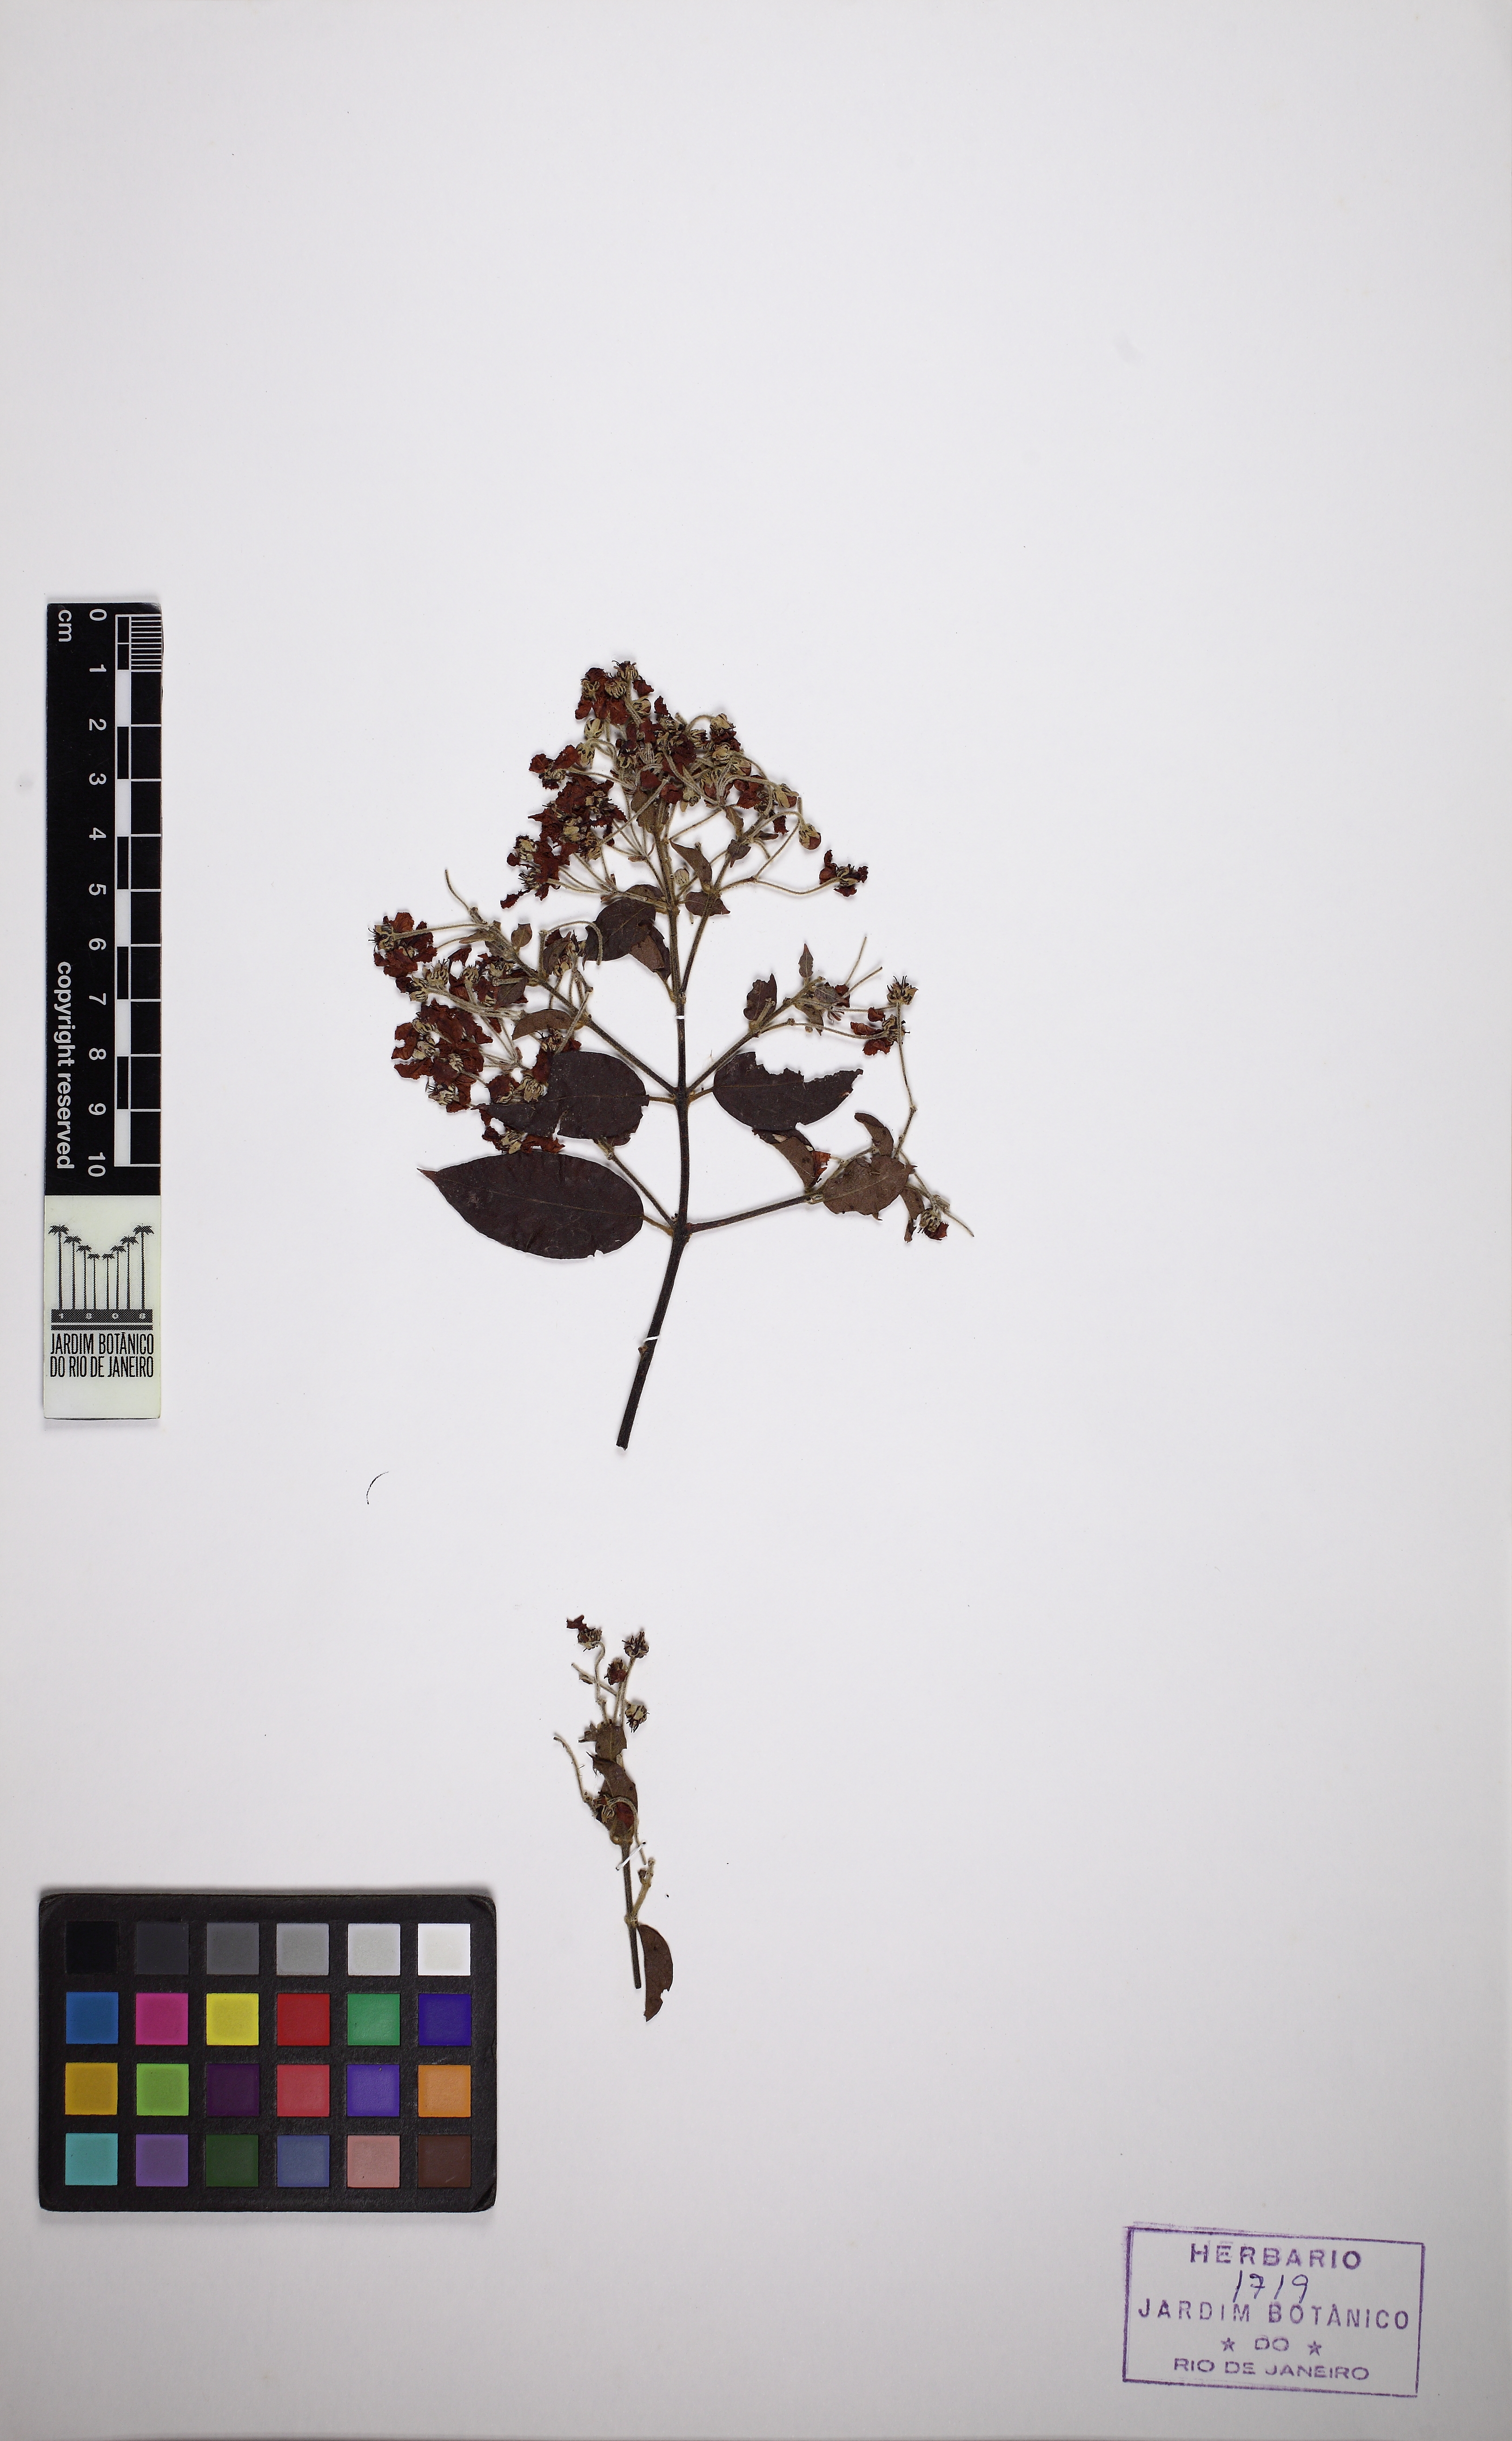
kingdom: Plantae
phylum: Tracheophyta
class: Magnoliopsida
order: Malpighiales
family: Malpighiaceae
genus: Banisteriopsis
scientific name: Banisteriopsis adenopoda
